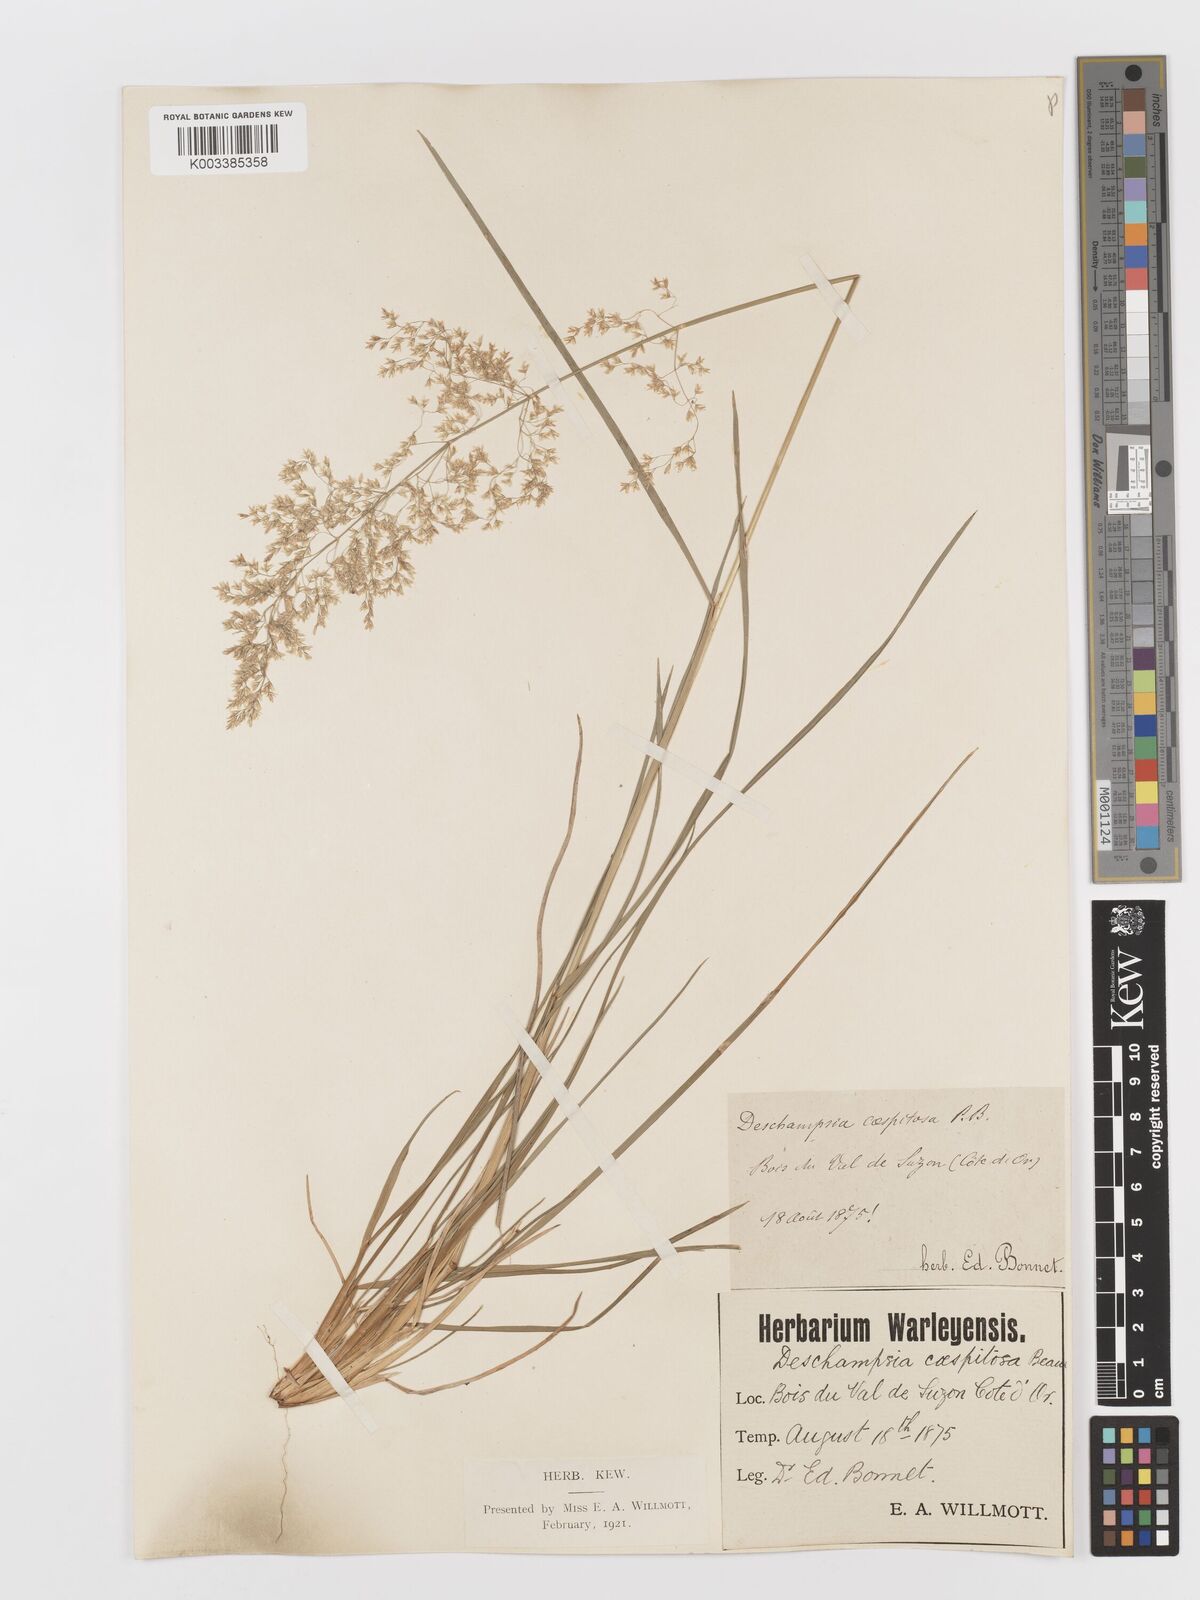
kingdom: Plantae
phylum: Tracheophyta
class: Liliopsida
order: Poales
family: Poaceae
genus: Deschampsia
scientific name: Deschampsia cespitosa
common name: Tufted hair-grass
